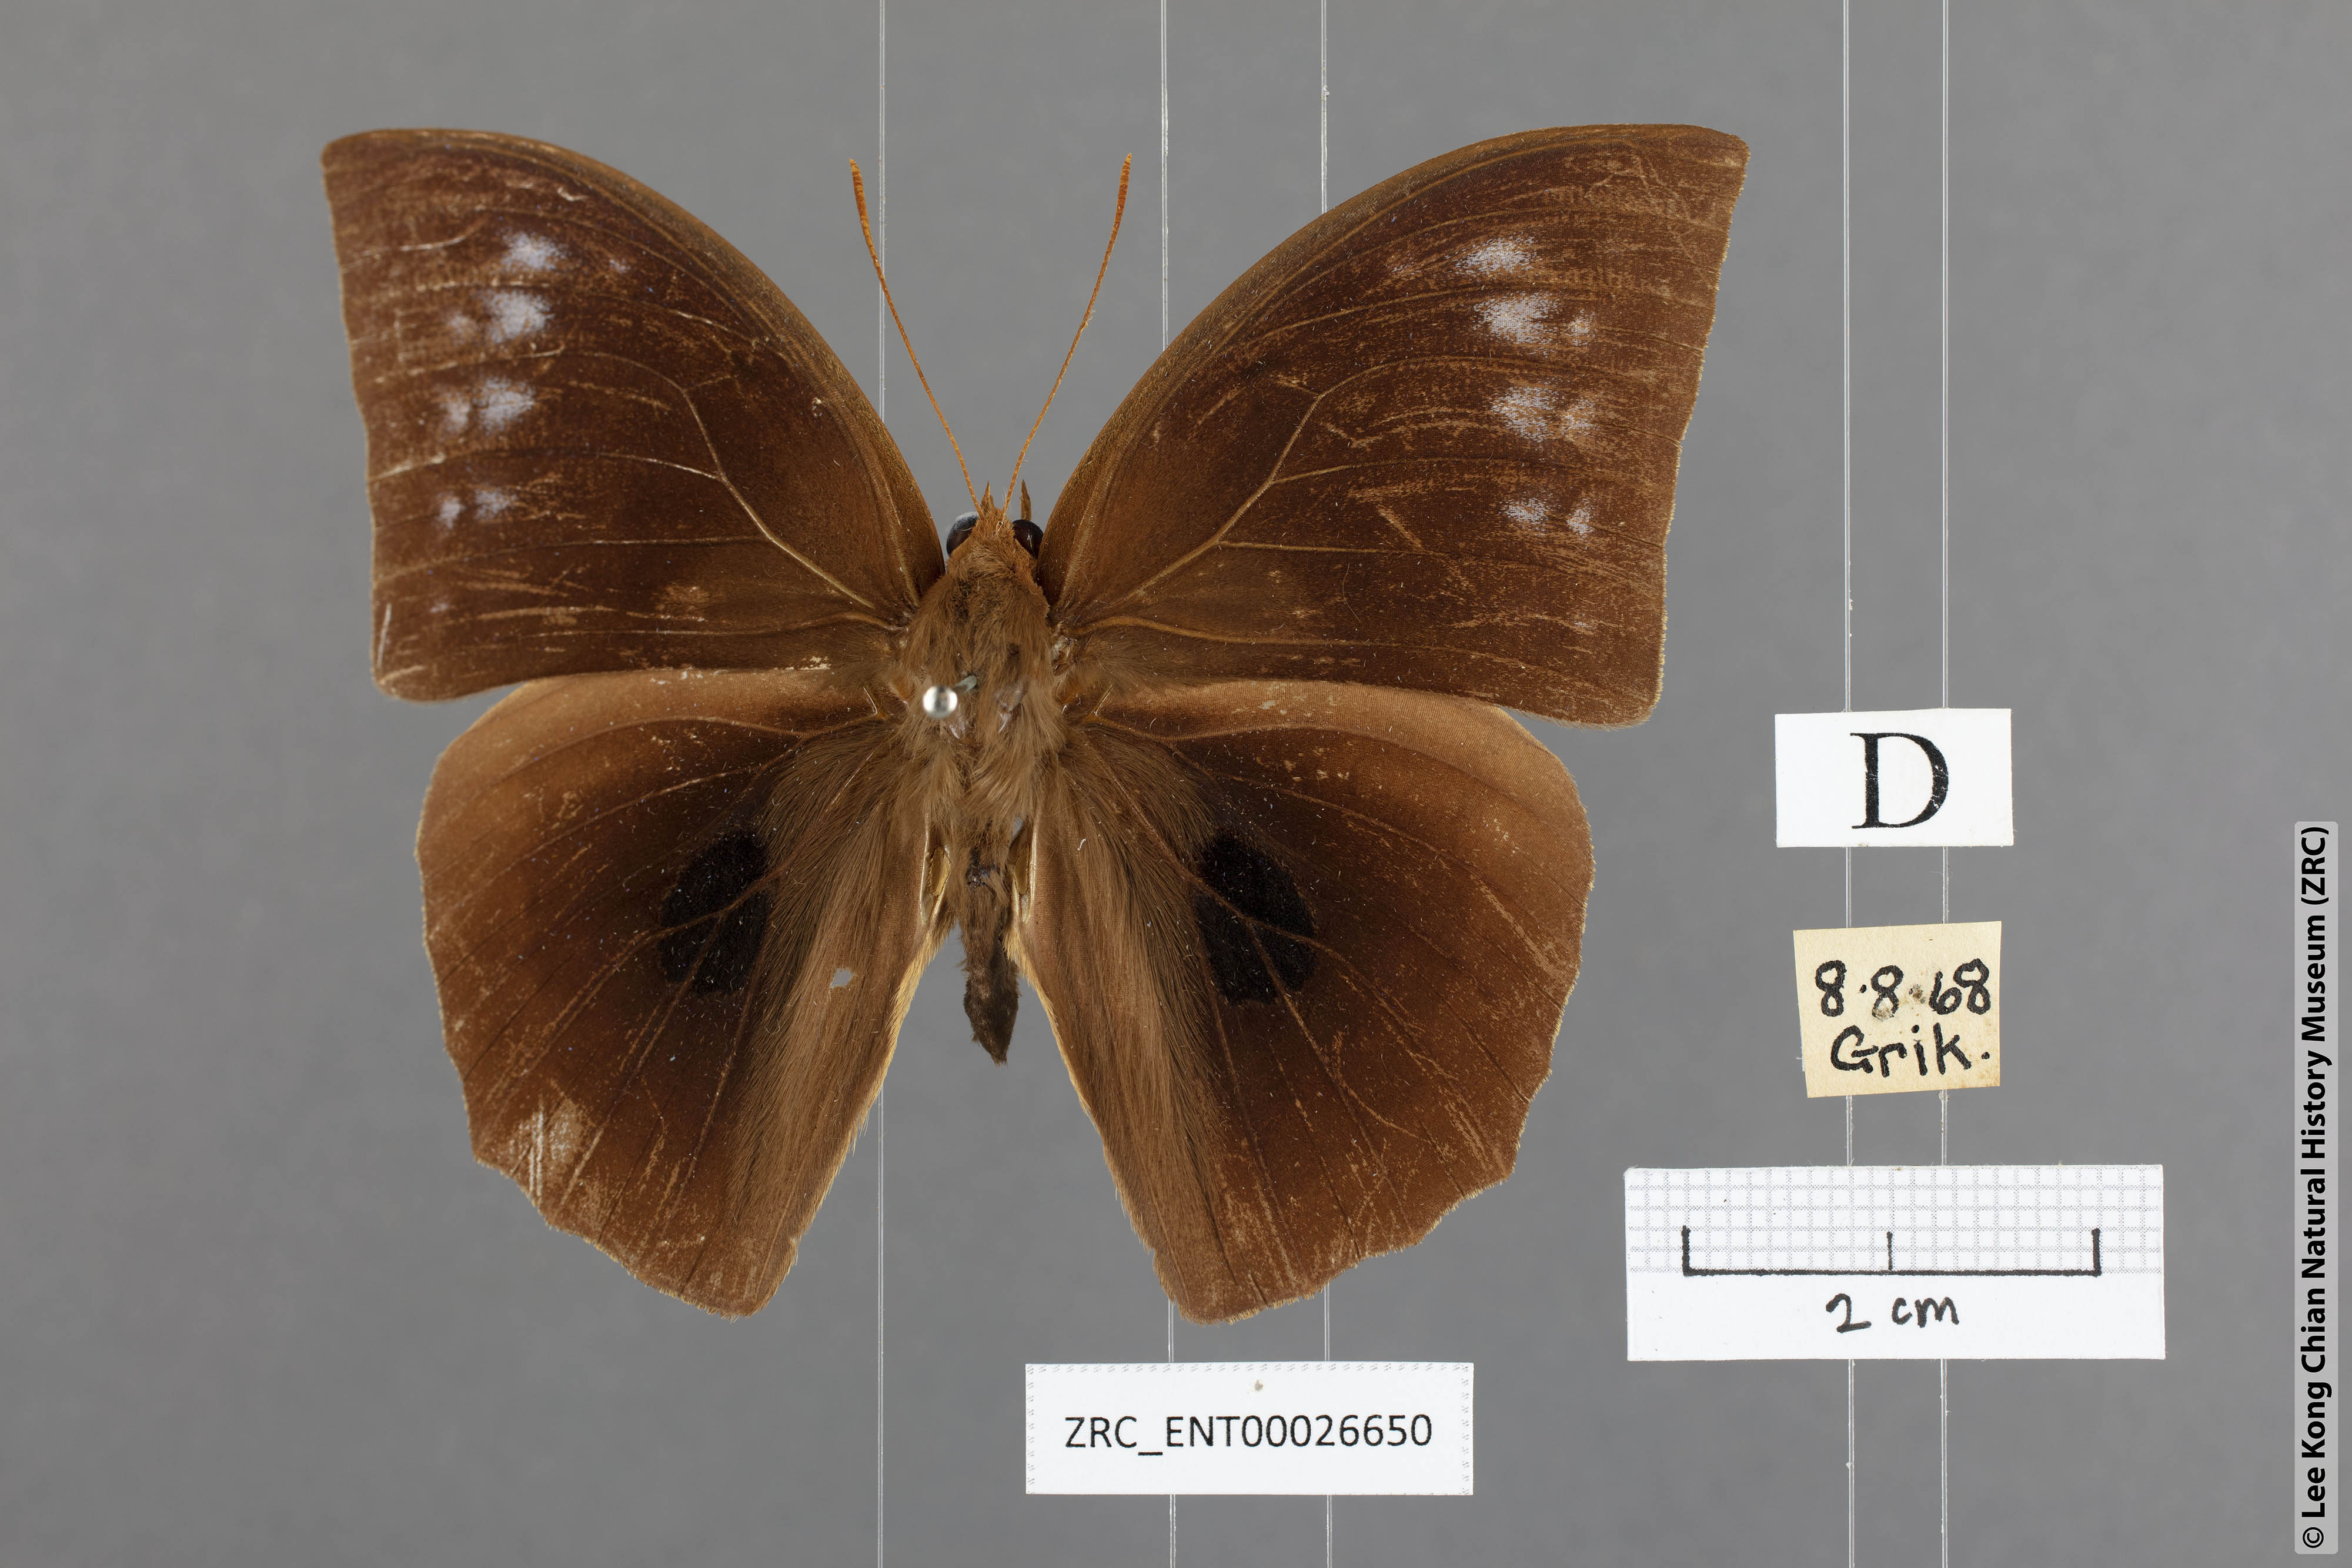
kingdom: Animalia
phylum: Arthropoda
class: Insecta
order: Lepidoptera
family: Nymphalidae
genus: Discophora
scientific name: Discophora sondaica
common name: Common duffer
